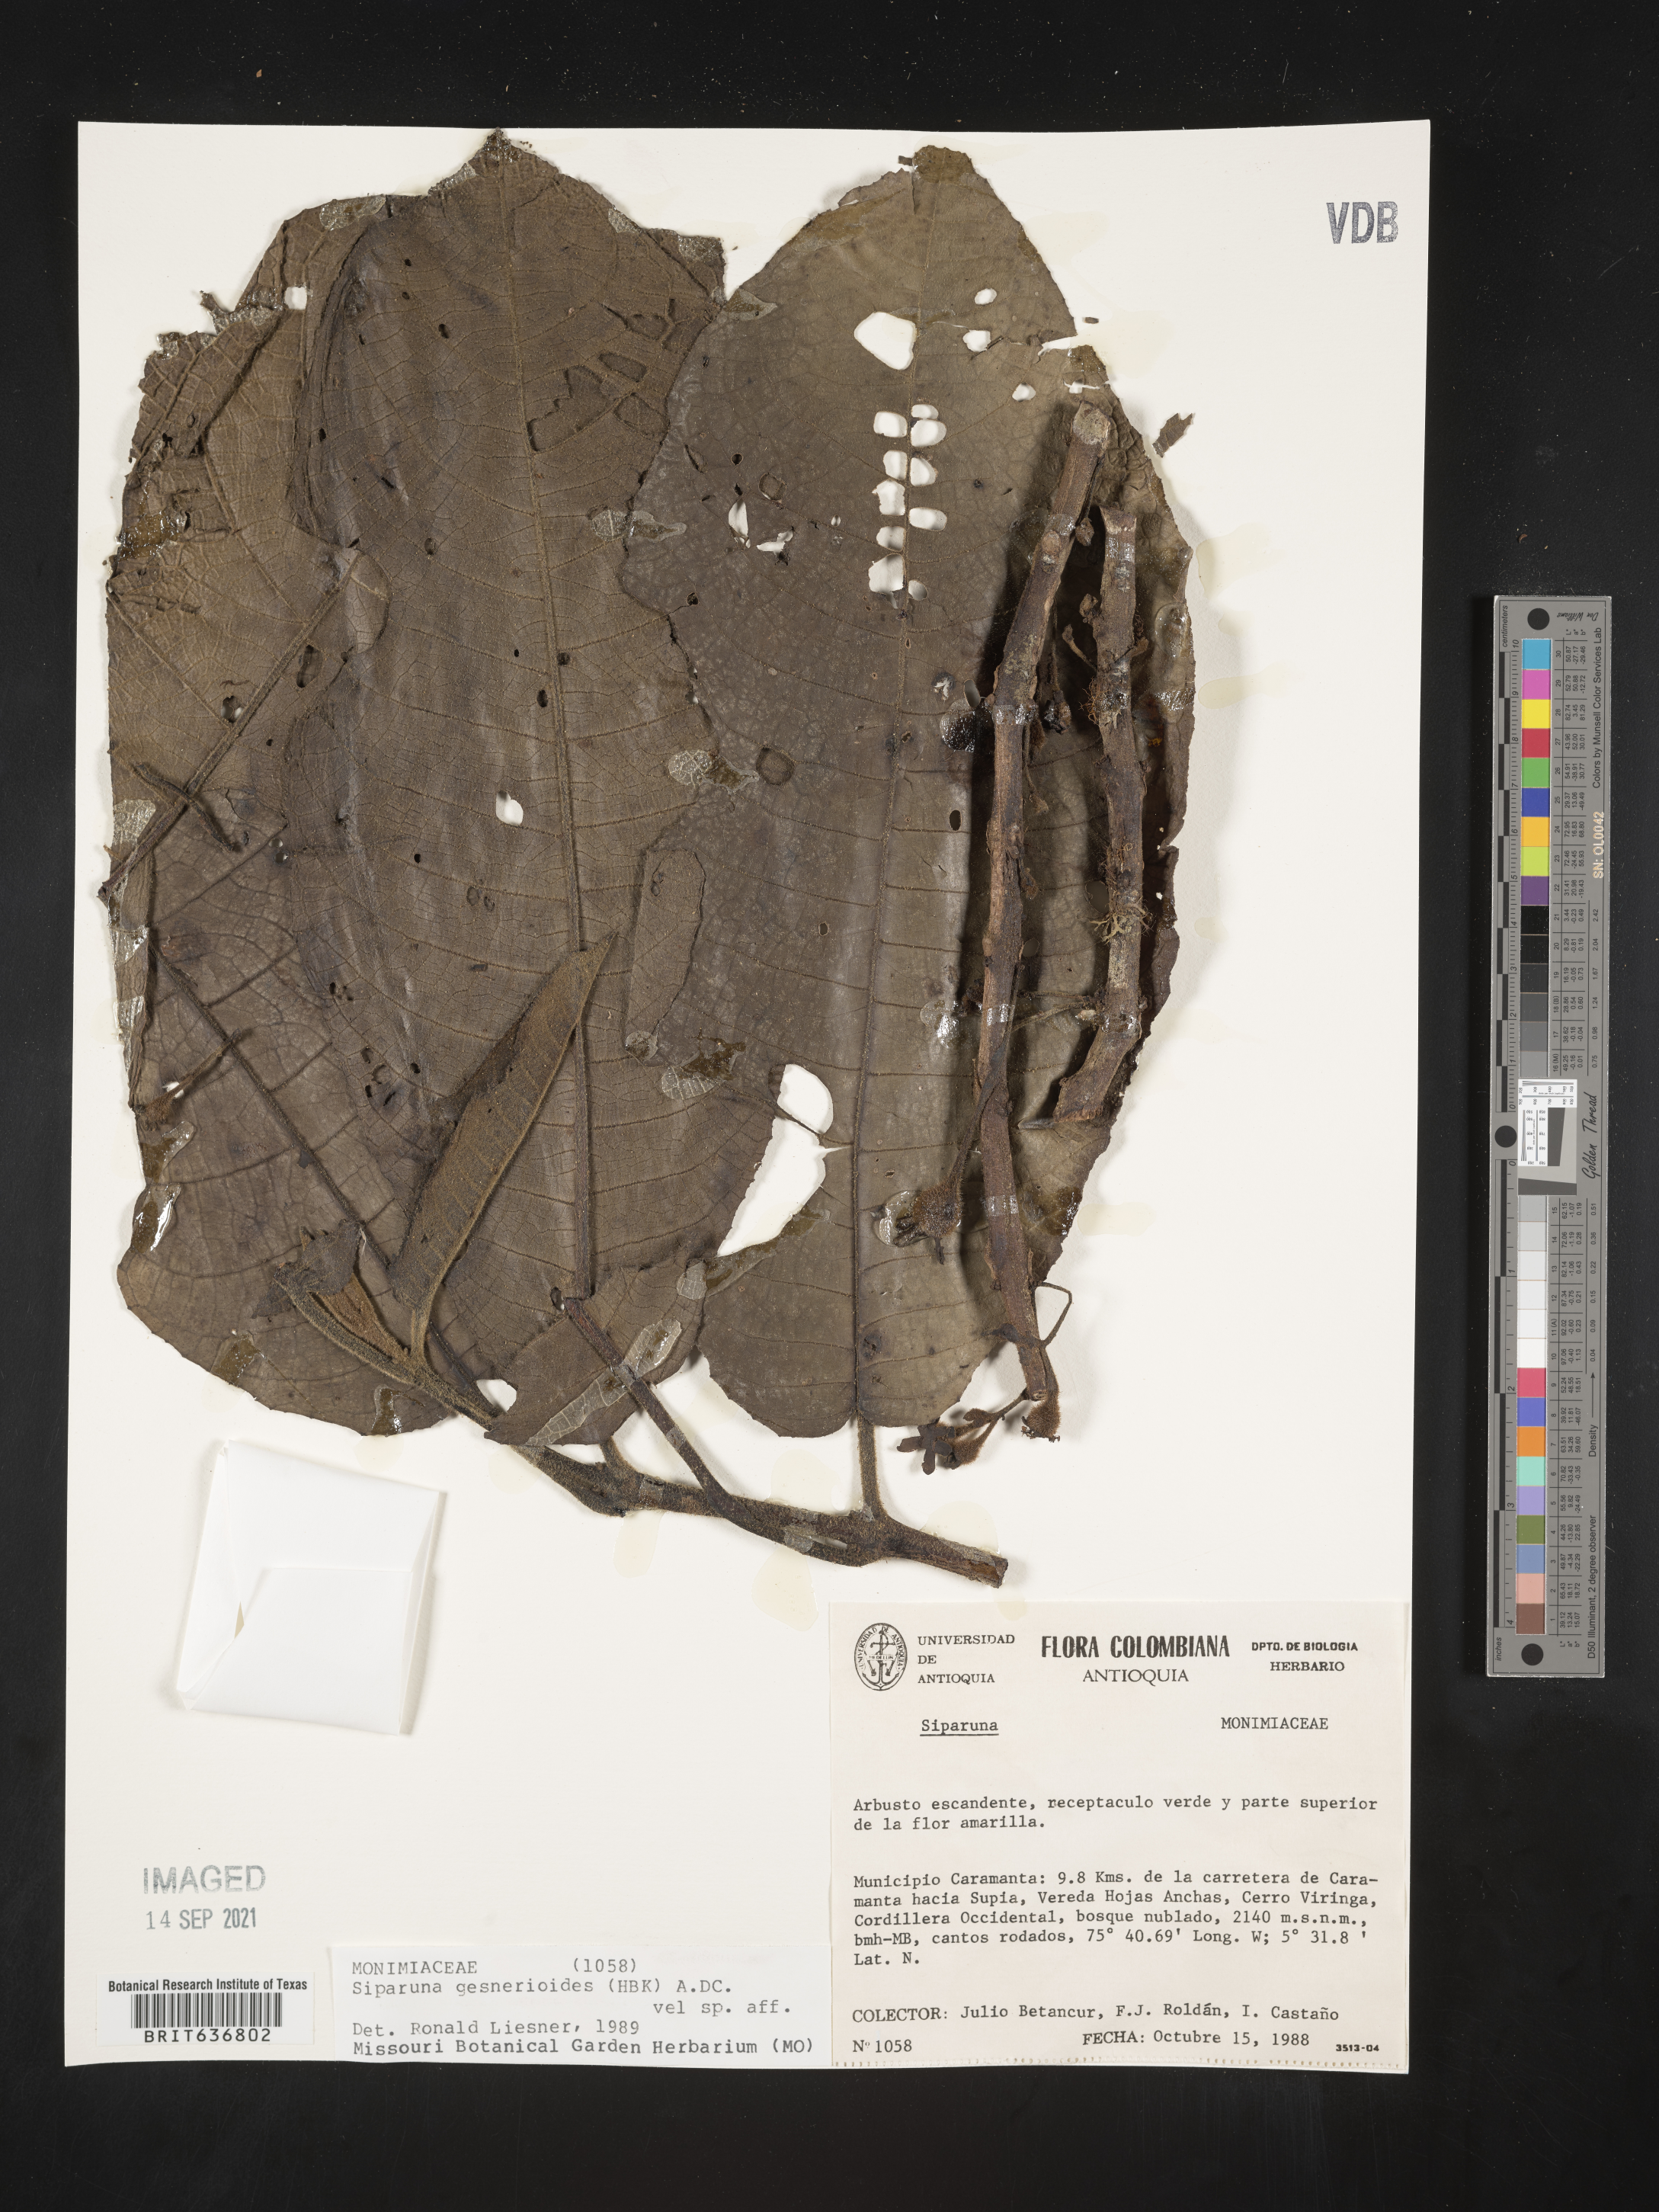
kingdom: Plantae
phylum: Tracheophyta
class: Magnoliopsida
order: Laurales
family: Siparunaceae
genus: Siparuna
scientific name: Siparuna
